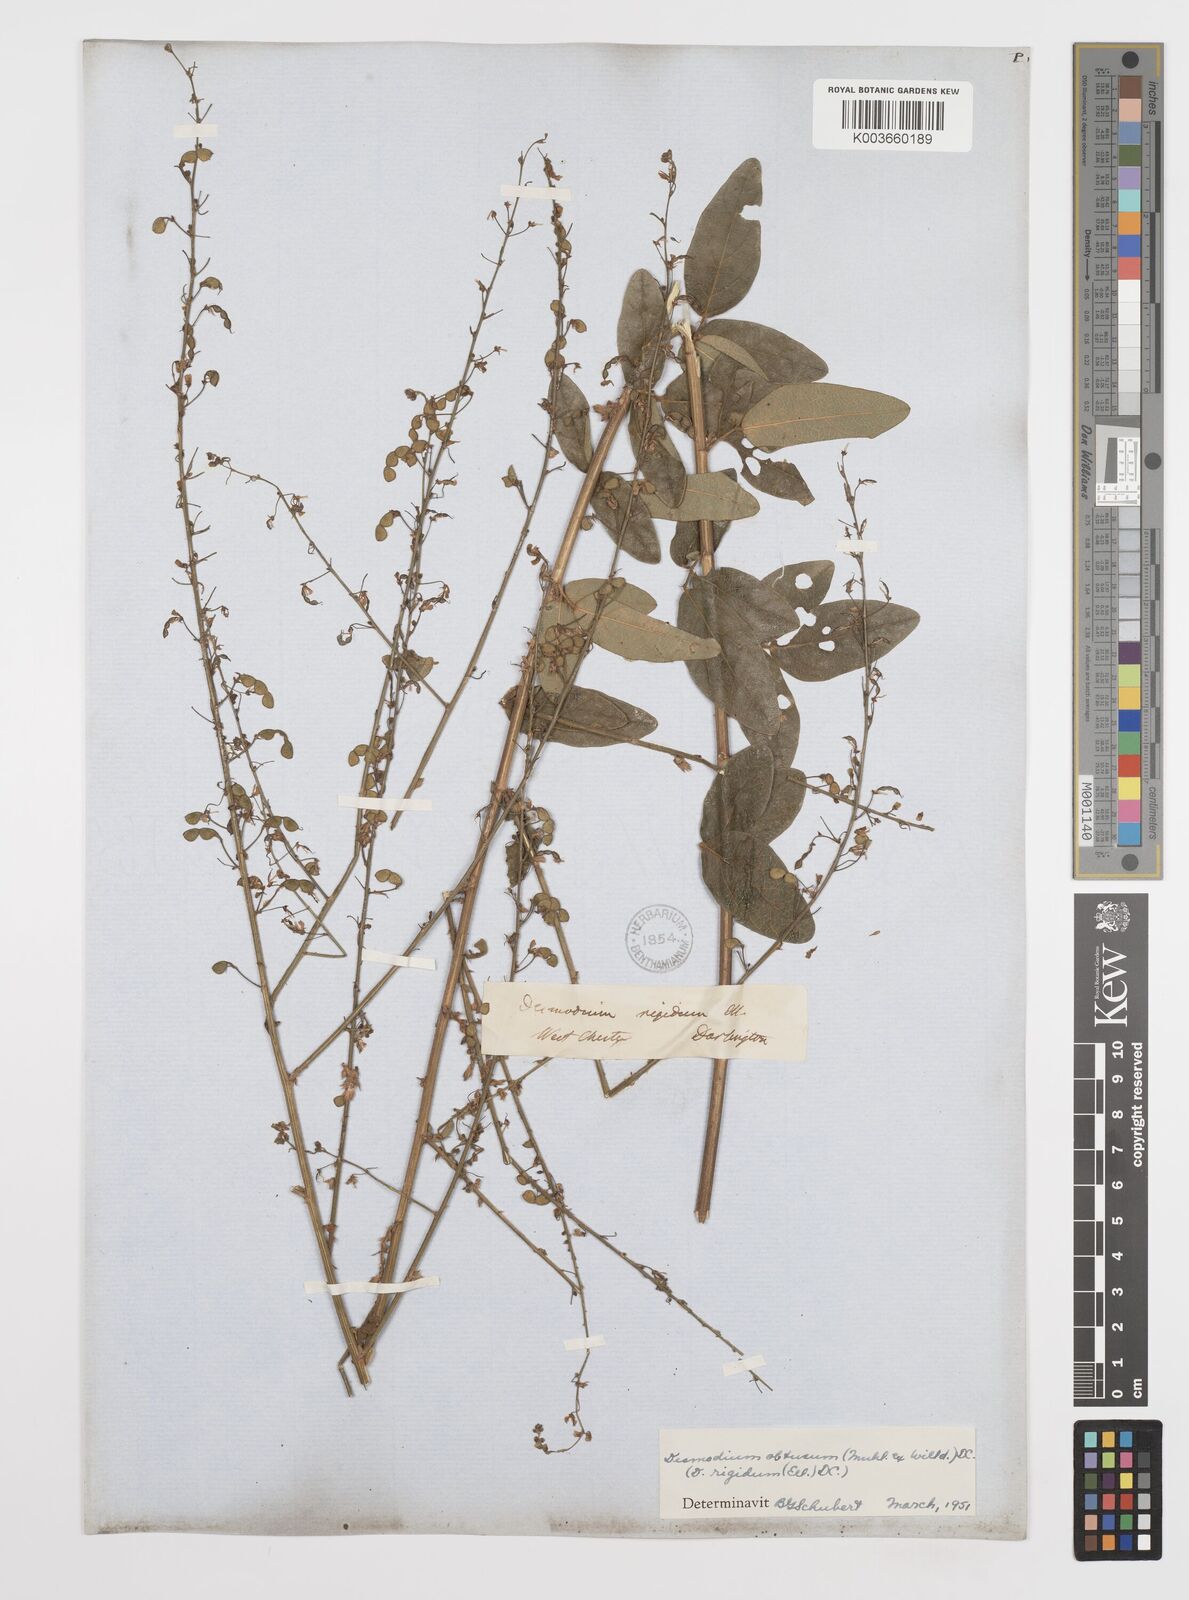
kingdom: Plantae
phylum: Tracheophyta
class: Magnoliopsida
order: Fabales
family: Fabaceae
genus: Desmodium
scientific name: Desmodium obtusum
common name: Stiff tick trefoil
